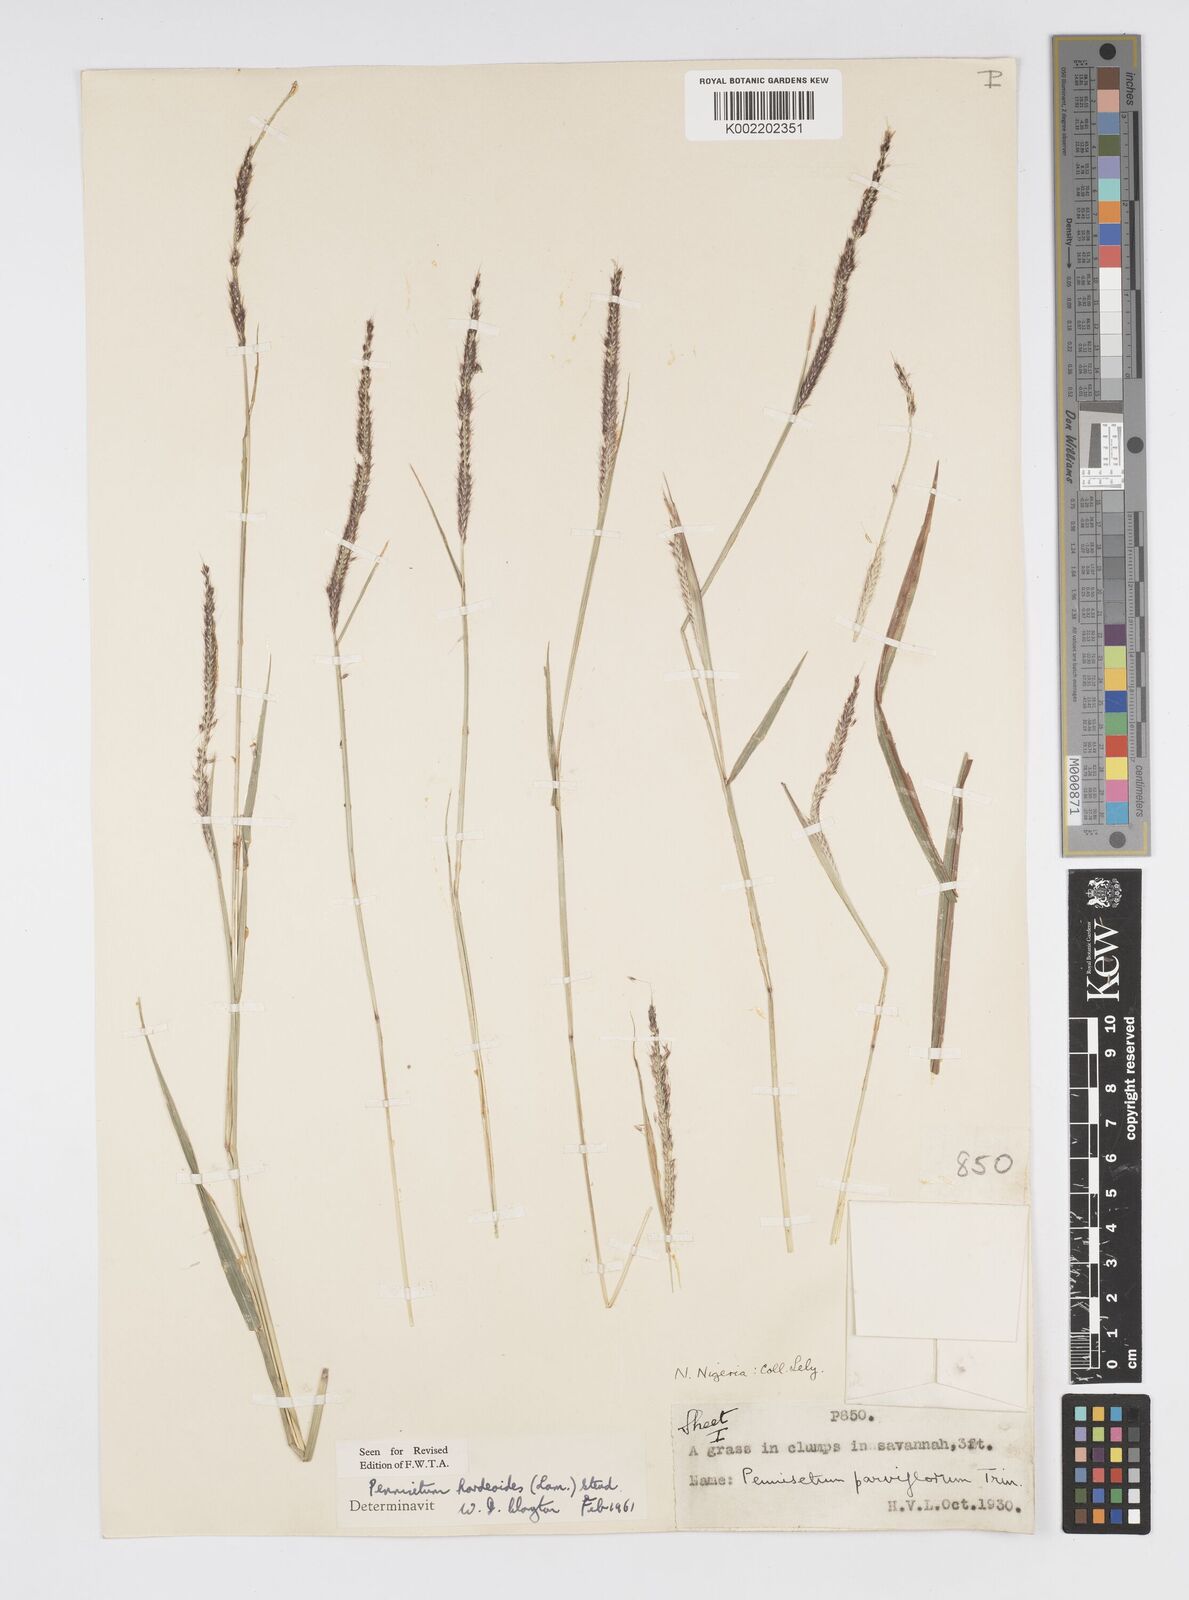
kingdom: Plantae
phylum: Tracheophyta
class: Liliopsida
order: Poales
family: Poaceae
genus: Cenchrus
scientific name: Cenchrus Pennisetum spec
